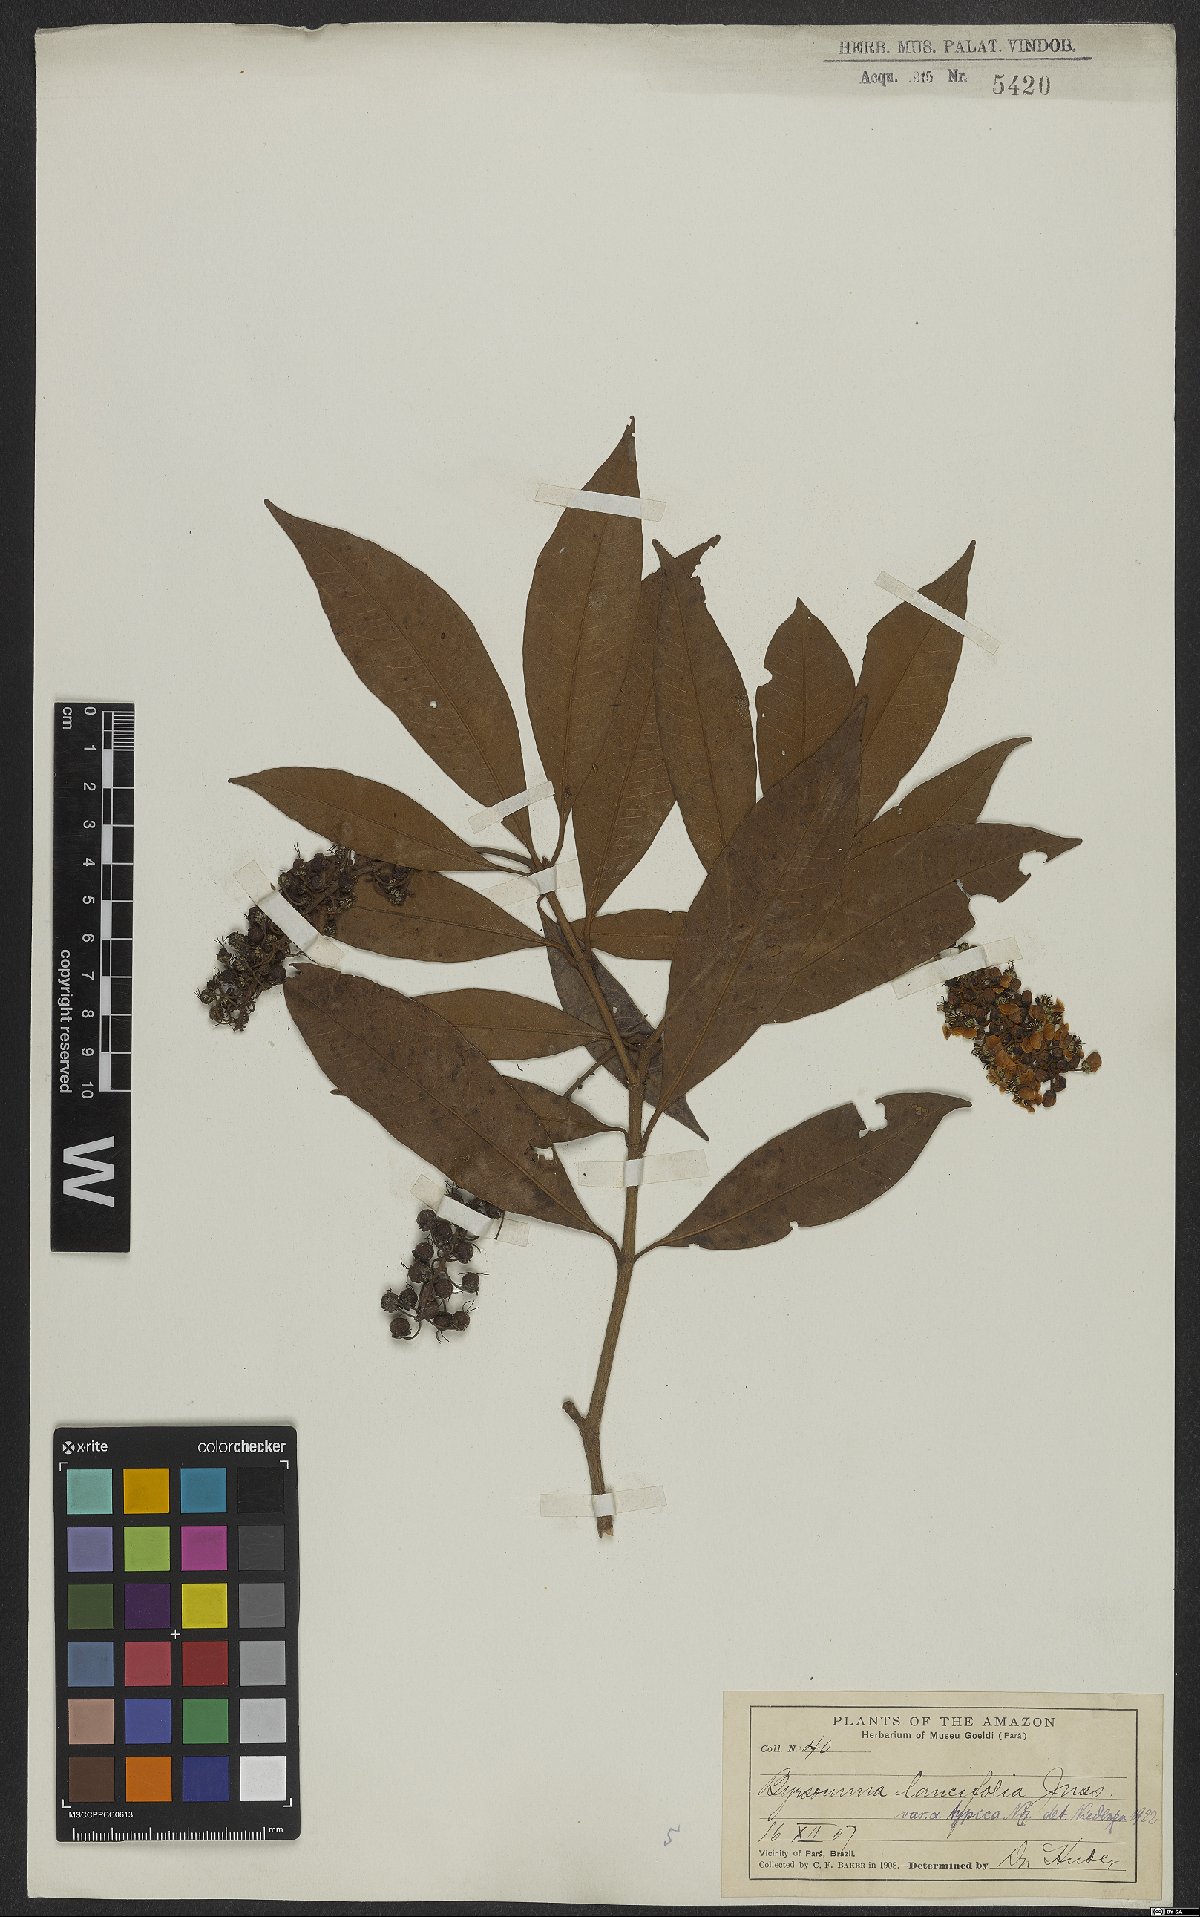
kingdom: Plantae
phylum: Tracheophyta
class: Magnoliopsida
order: Malpighiales
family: Malpighiaceae
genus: Byrsonima
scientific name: Byrsonima lancifolia
